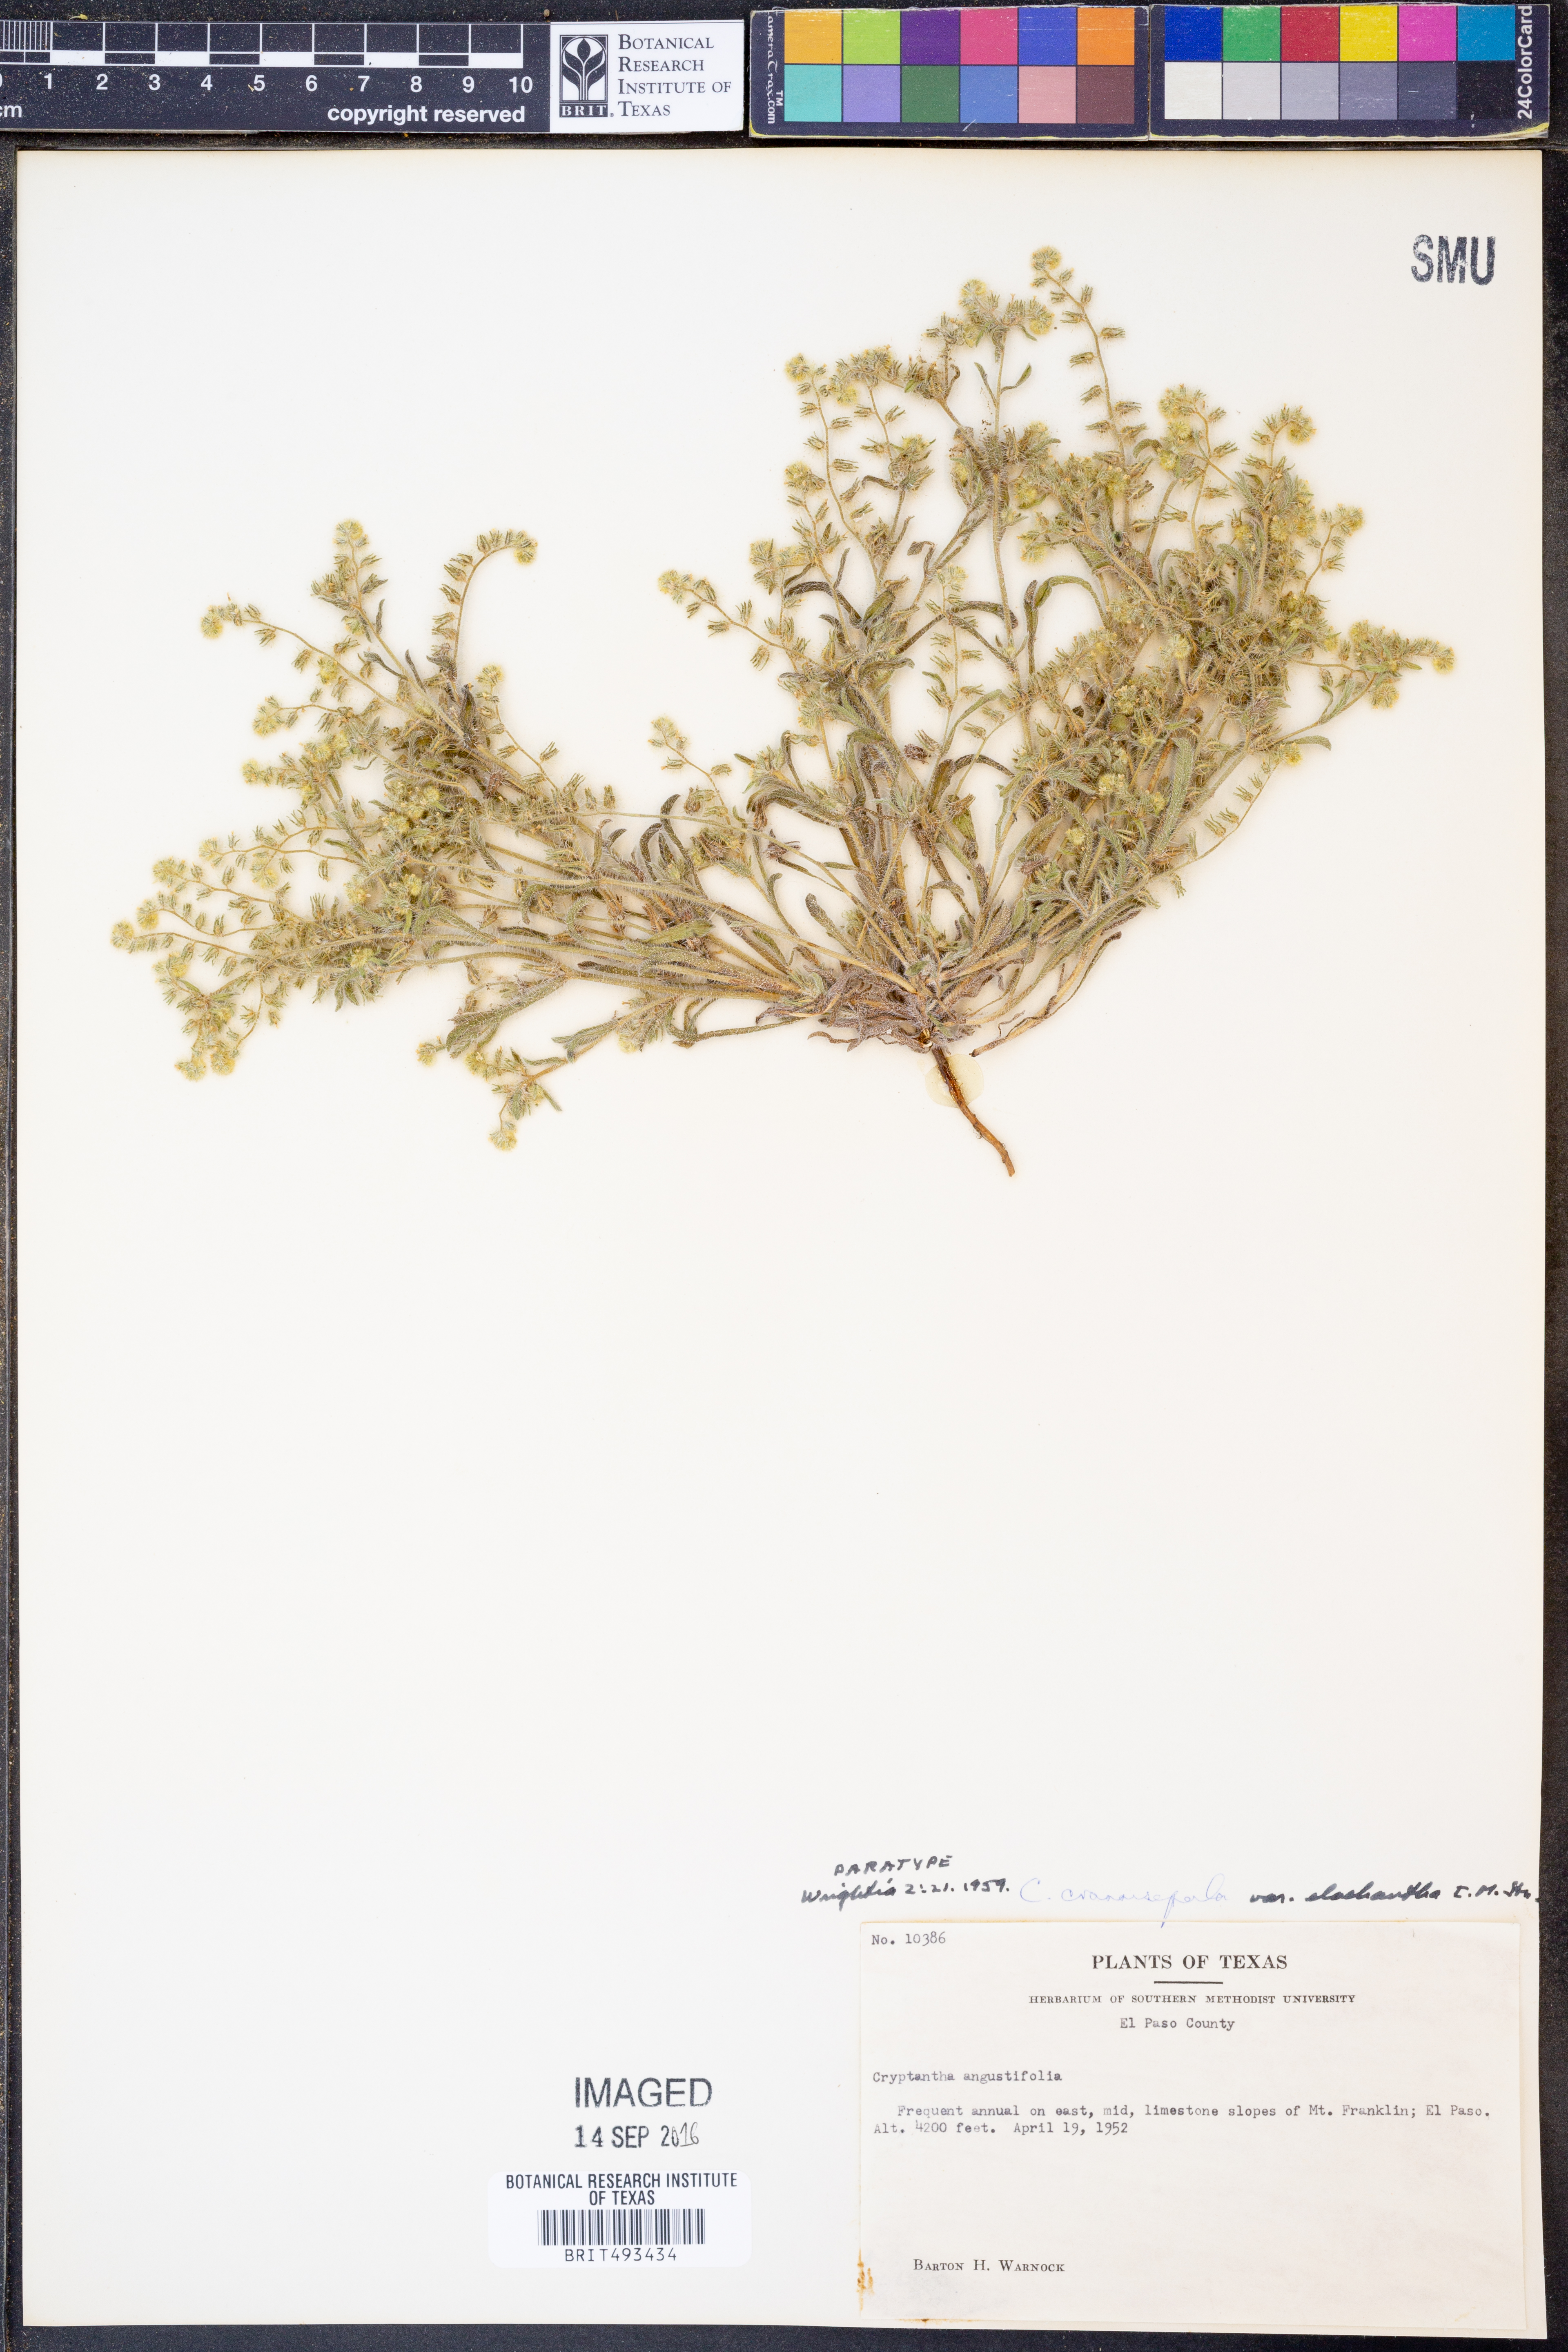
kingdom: Plantae
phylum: Tracheophyta
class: Magnoliopsida
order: Boraginales
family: Boraginaceae
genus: Cryptantha
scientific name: Cryptantha crassisepala
